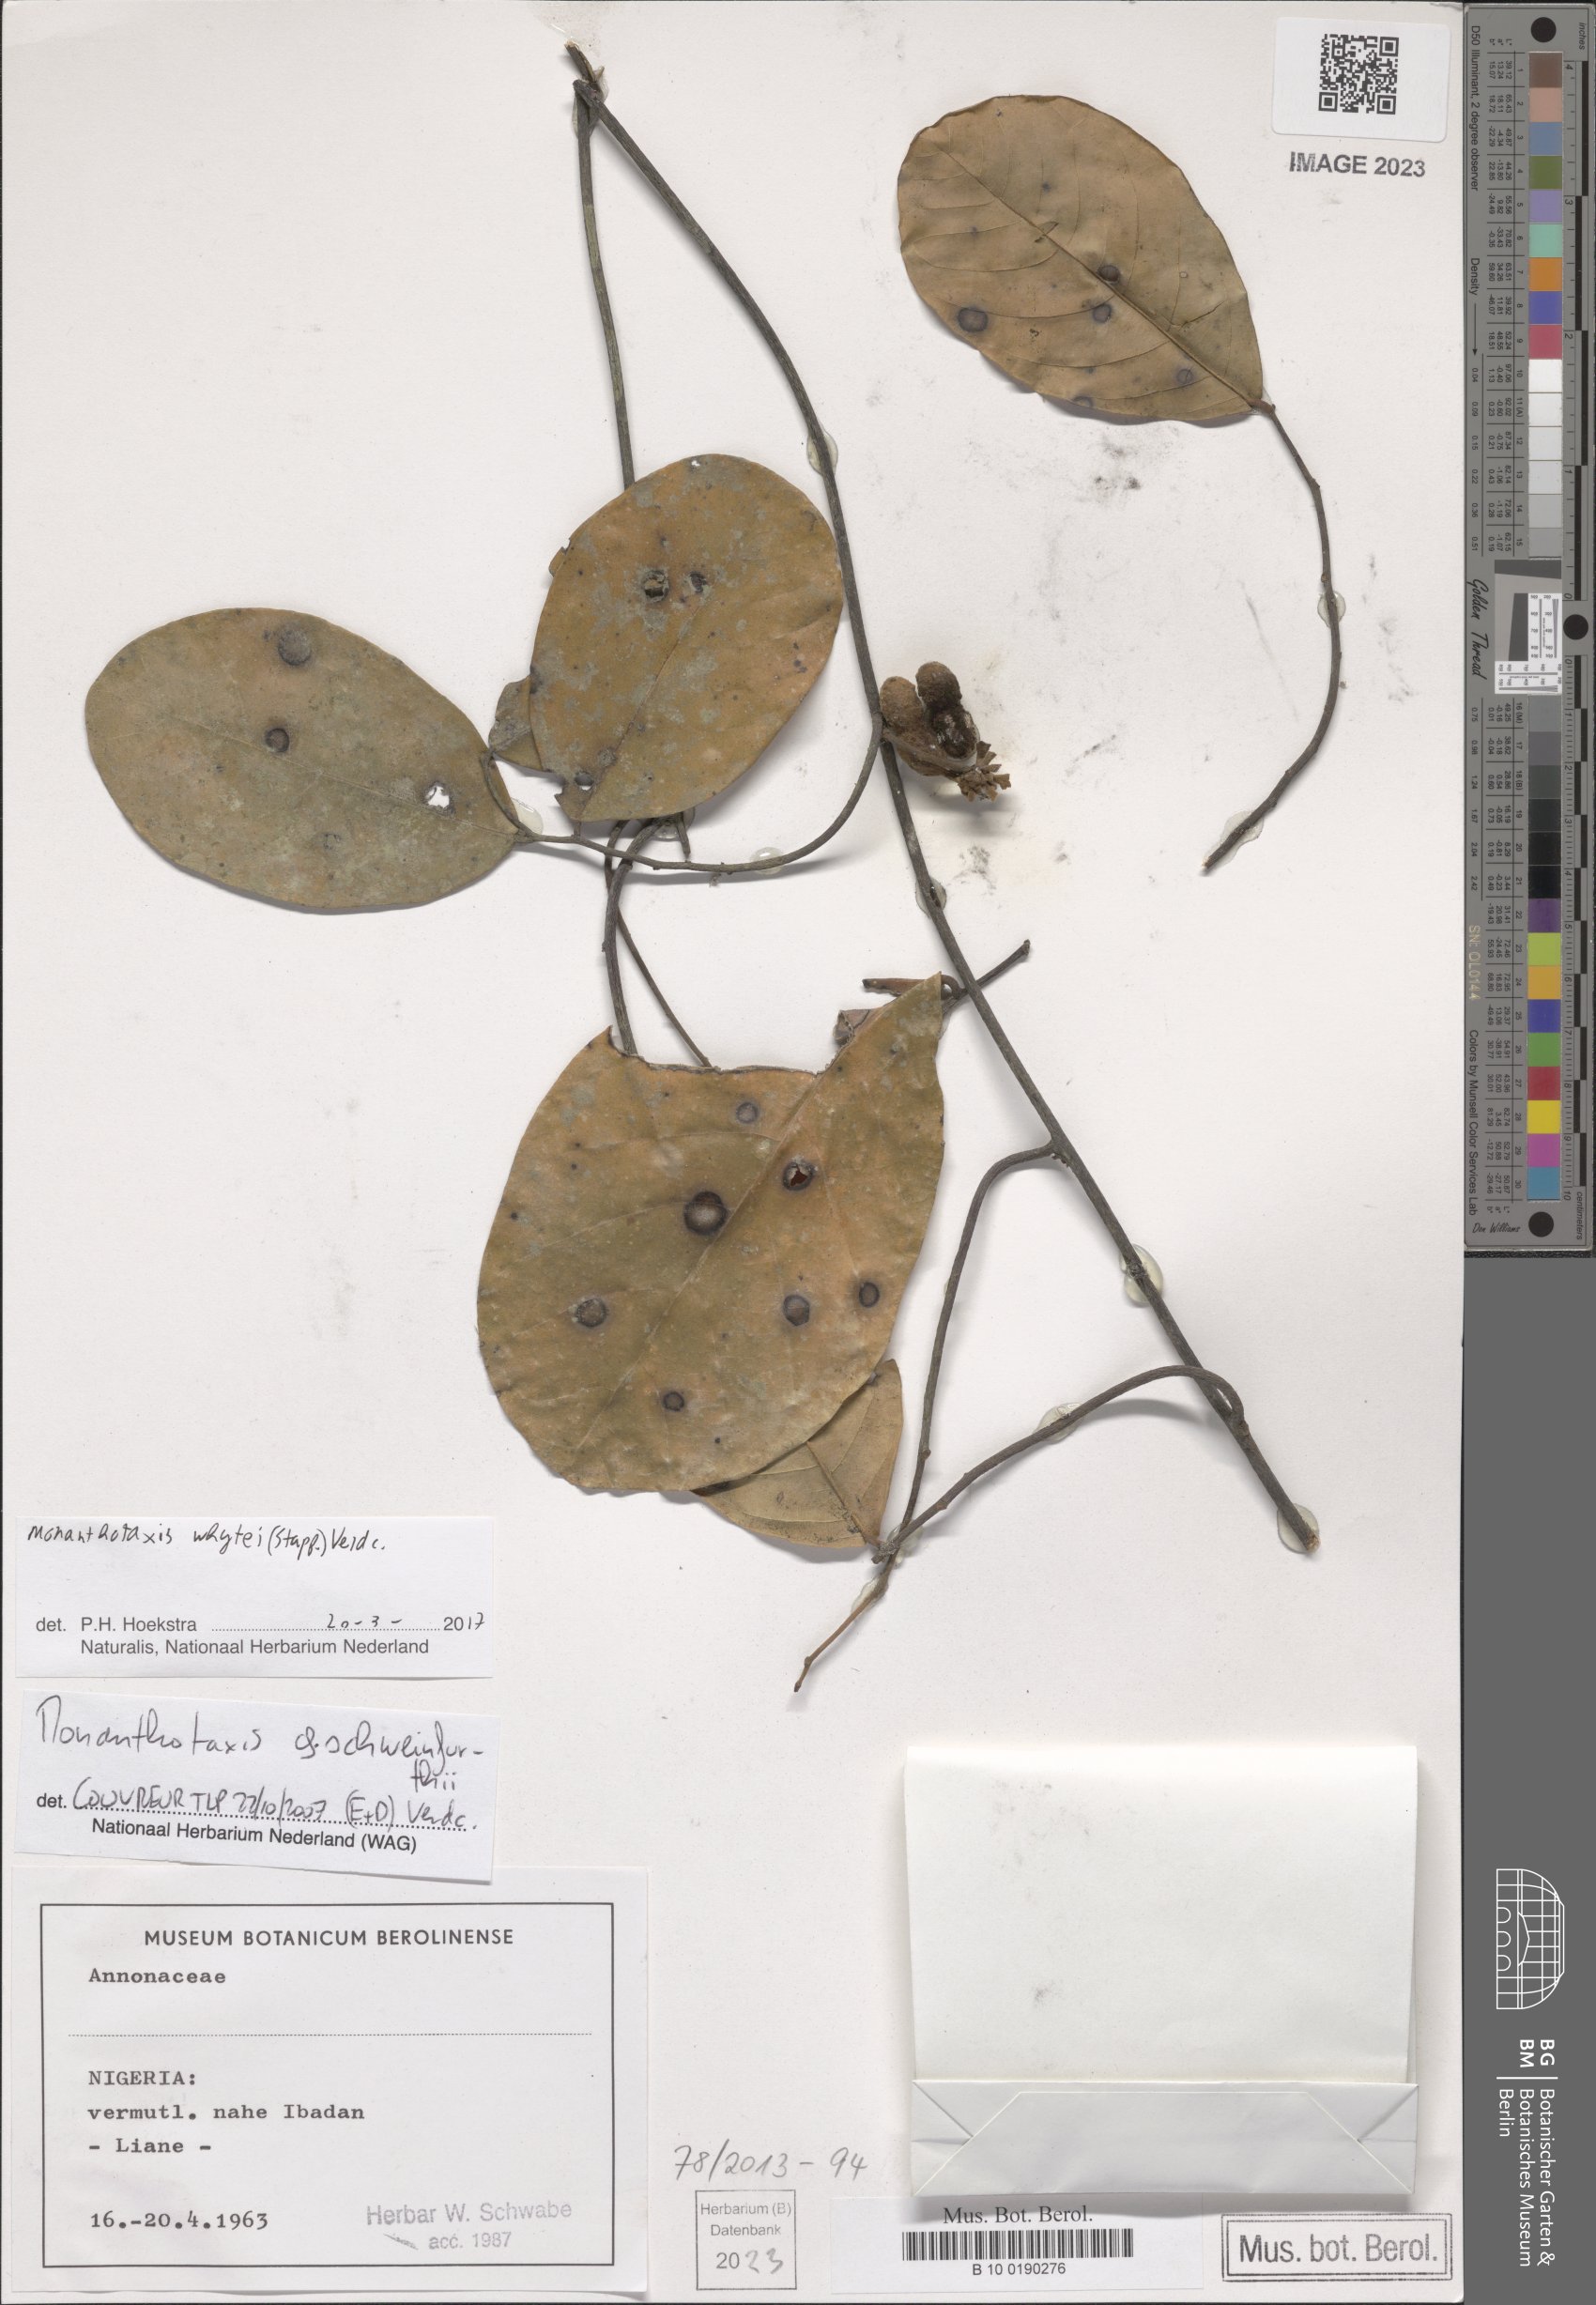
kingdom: Plantae
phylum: Tracheophyta
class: Magnoliopsida
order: Magnoliales
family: Annonaceae
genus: Monanthotaxis
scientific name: Monanthotaxis whytei
